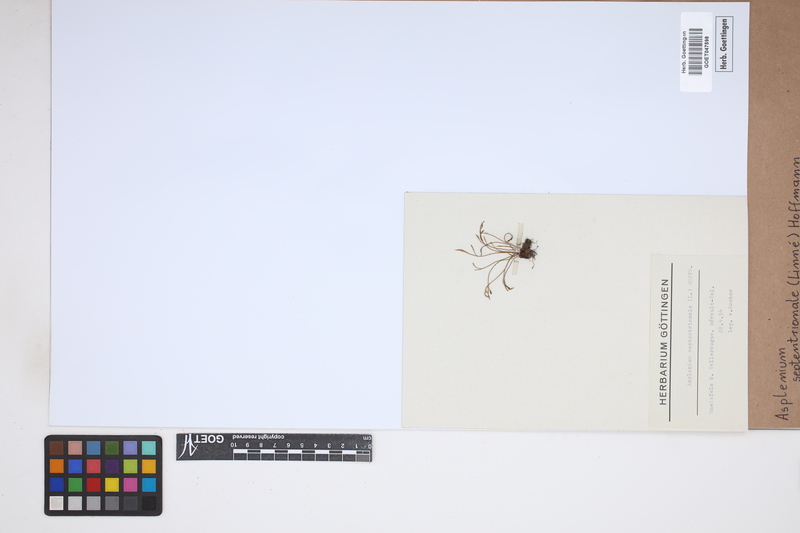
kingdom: Plantae
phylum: Tracheophyta
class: Polypodiopsida
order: Polypodiales
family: Aspleniaceae
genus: Asplenium
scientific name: Asplenium septentrionale
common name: Forked spleenwort
